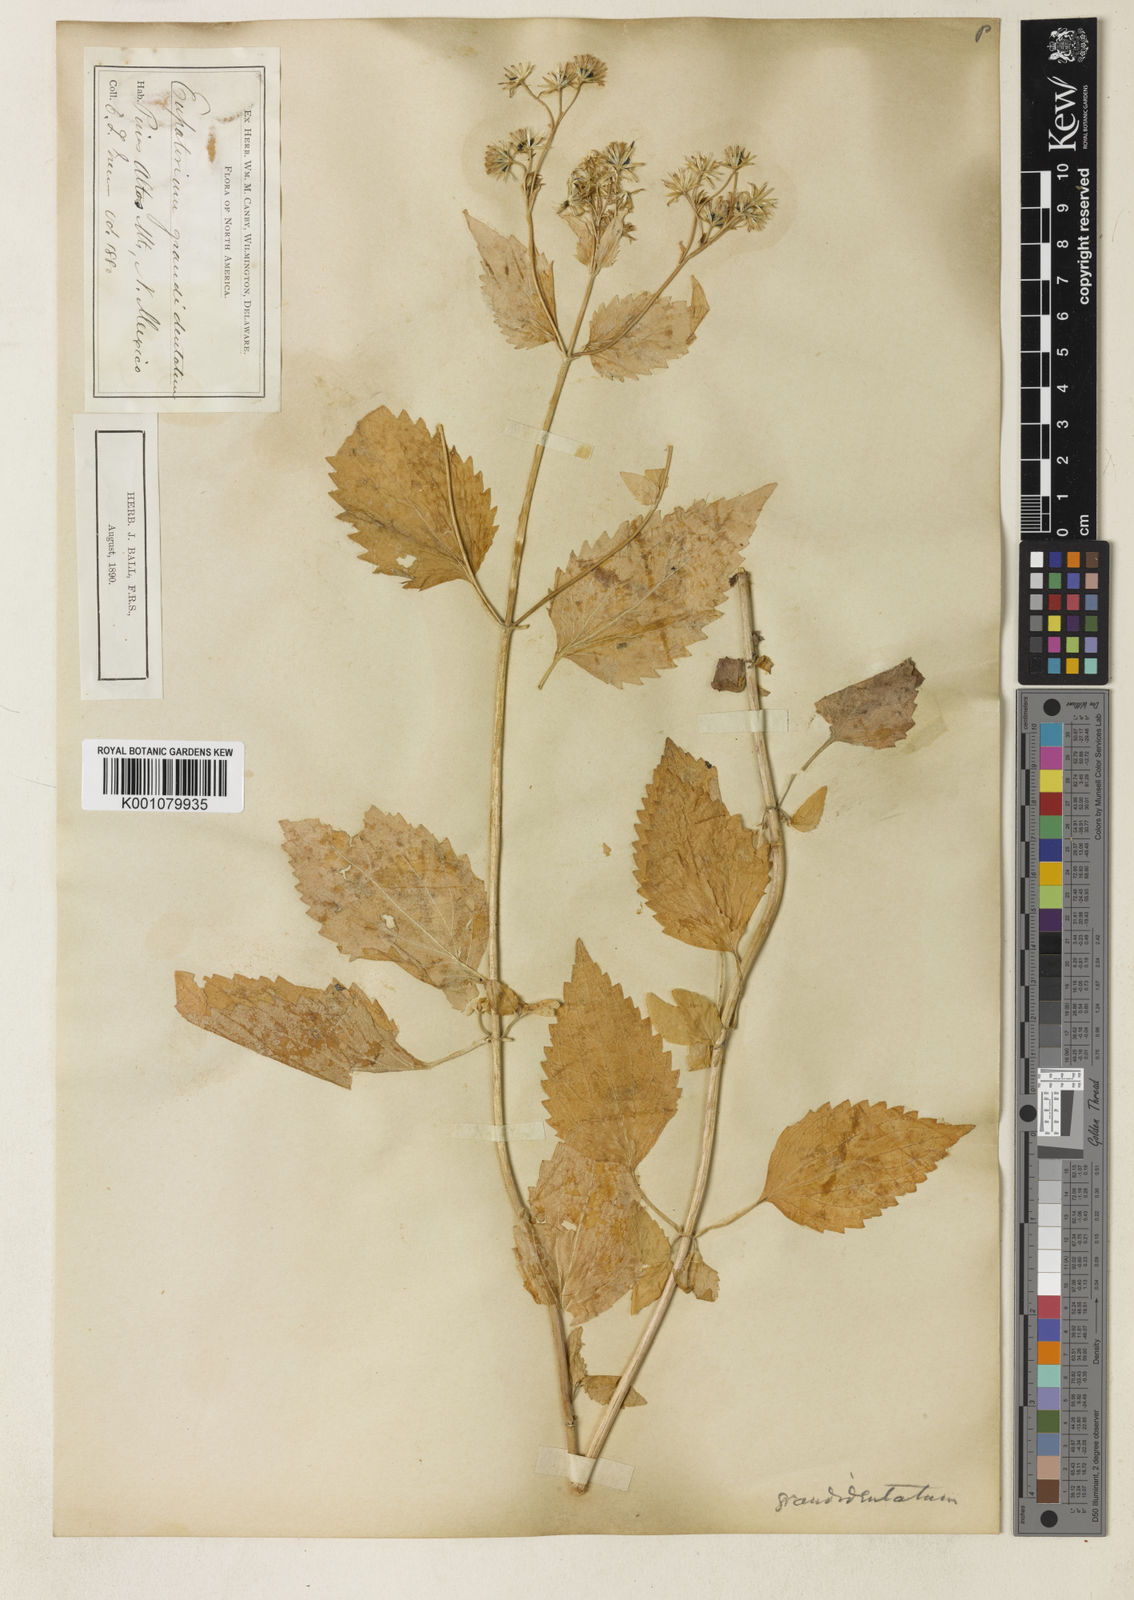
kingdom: Plantae
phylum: Tracheophyta
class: Magnoliopsida
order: Asterales
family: Asteraceae
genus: Ageratina
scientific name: Ageratina
